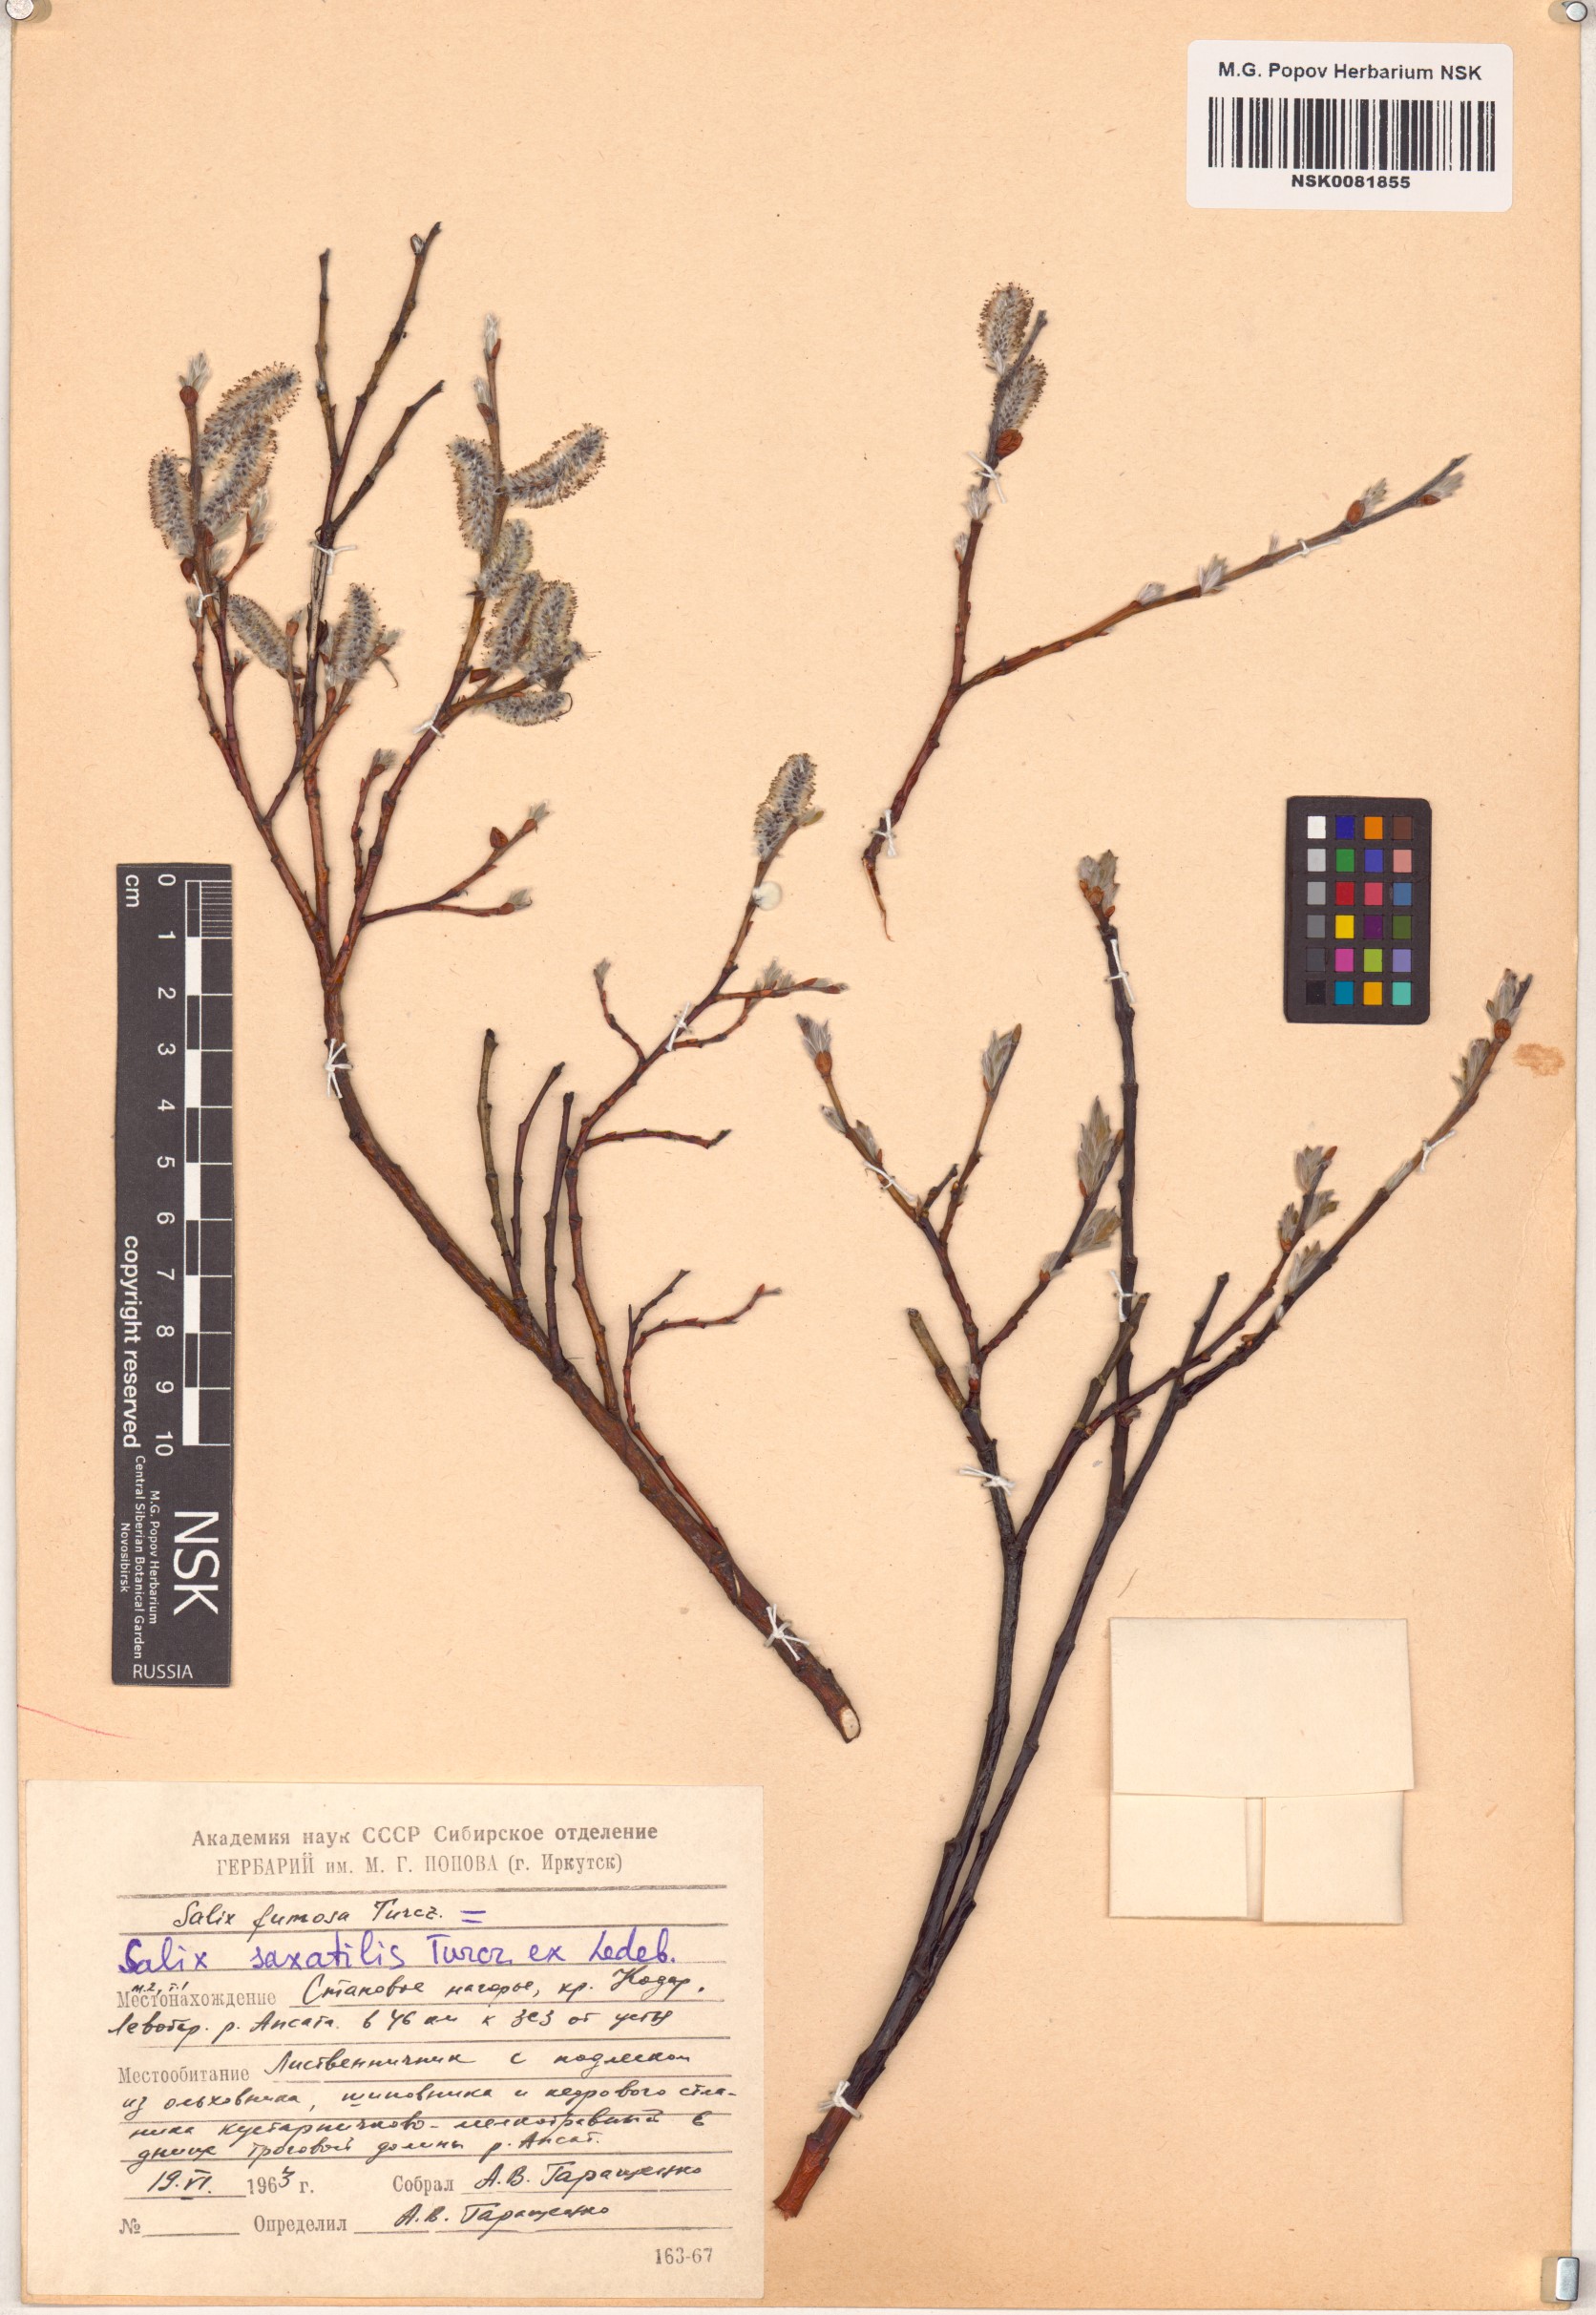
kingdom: Plantae
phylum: Tracheophyta
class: Magnoliopsida
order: Malpighiales
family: Salicaceae
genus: Salix
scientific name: Salix saxatilis
